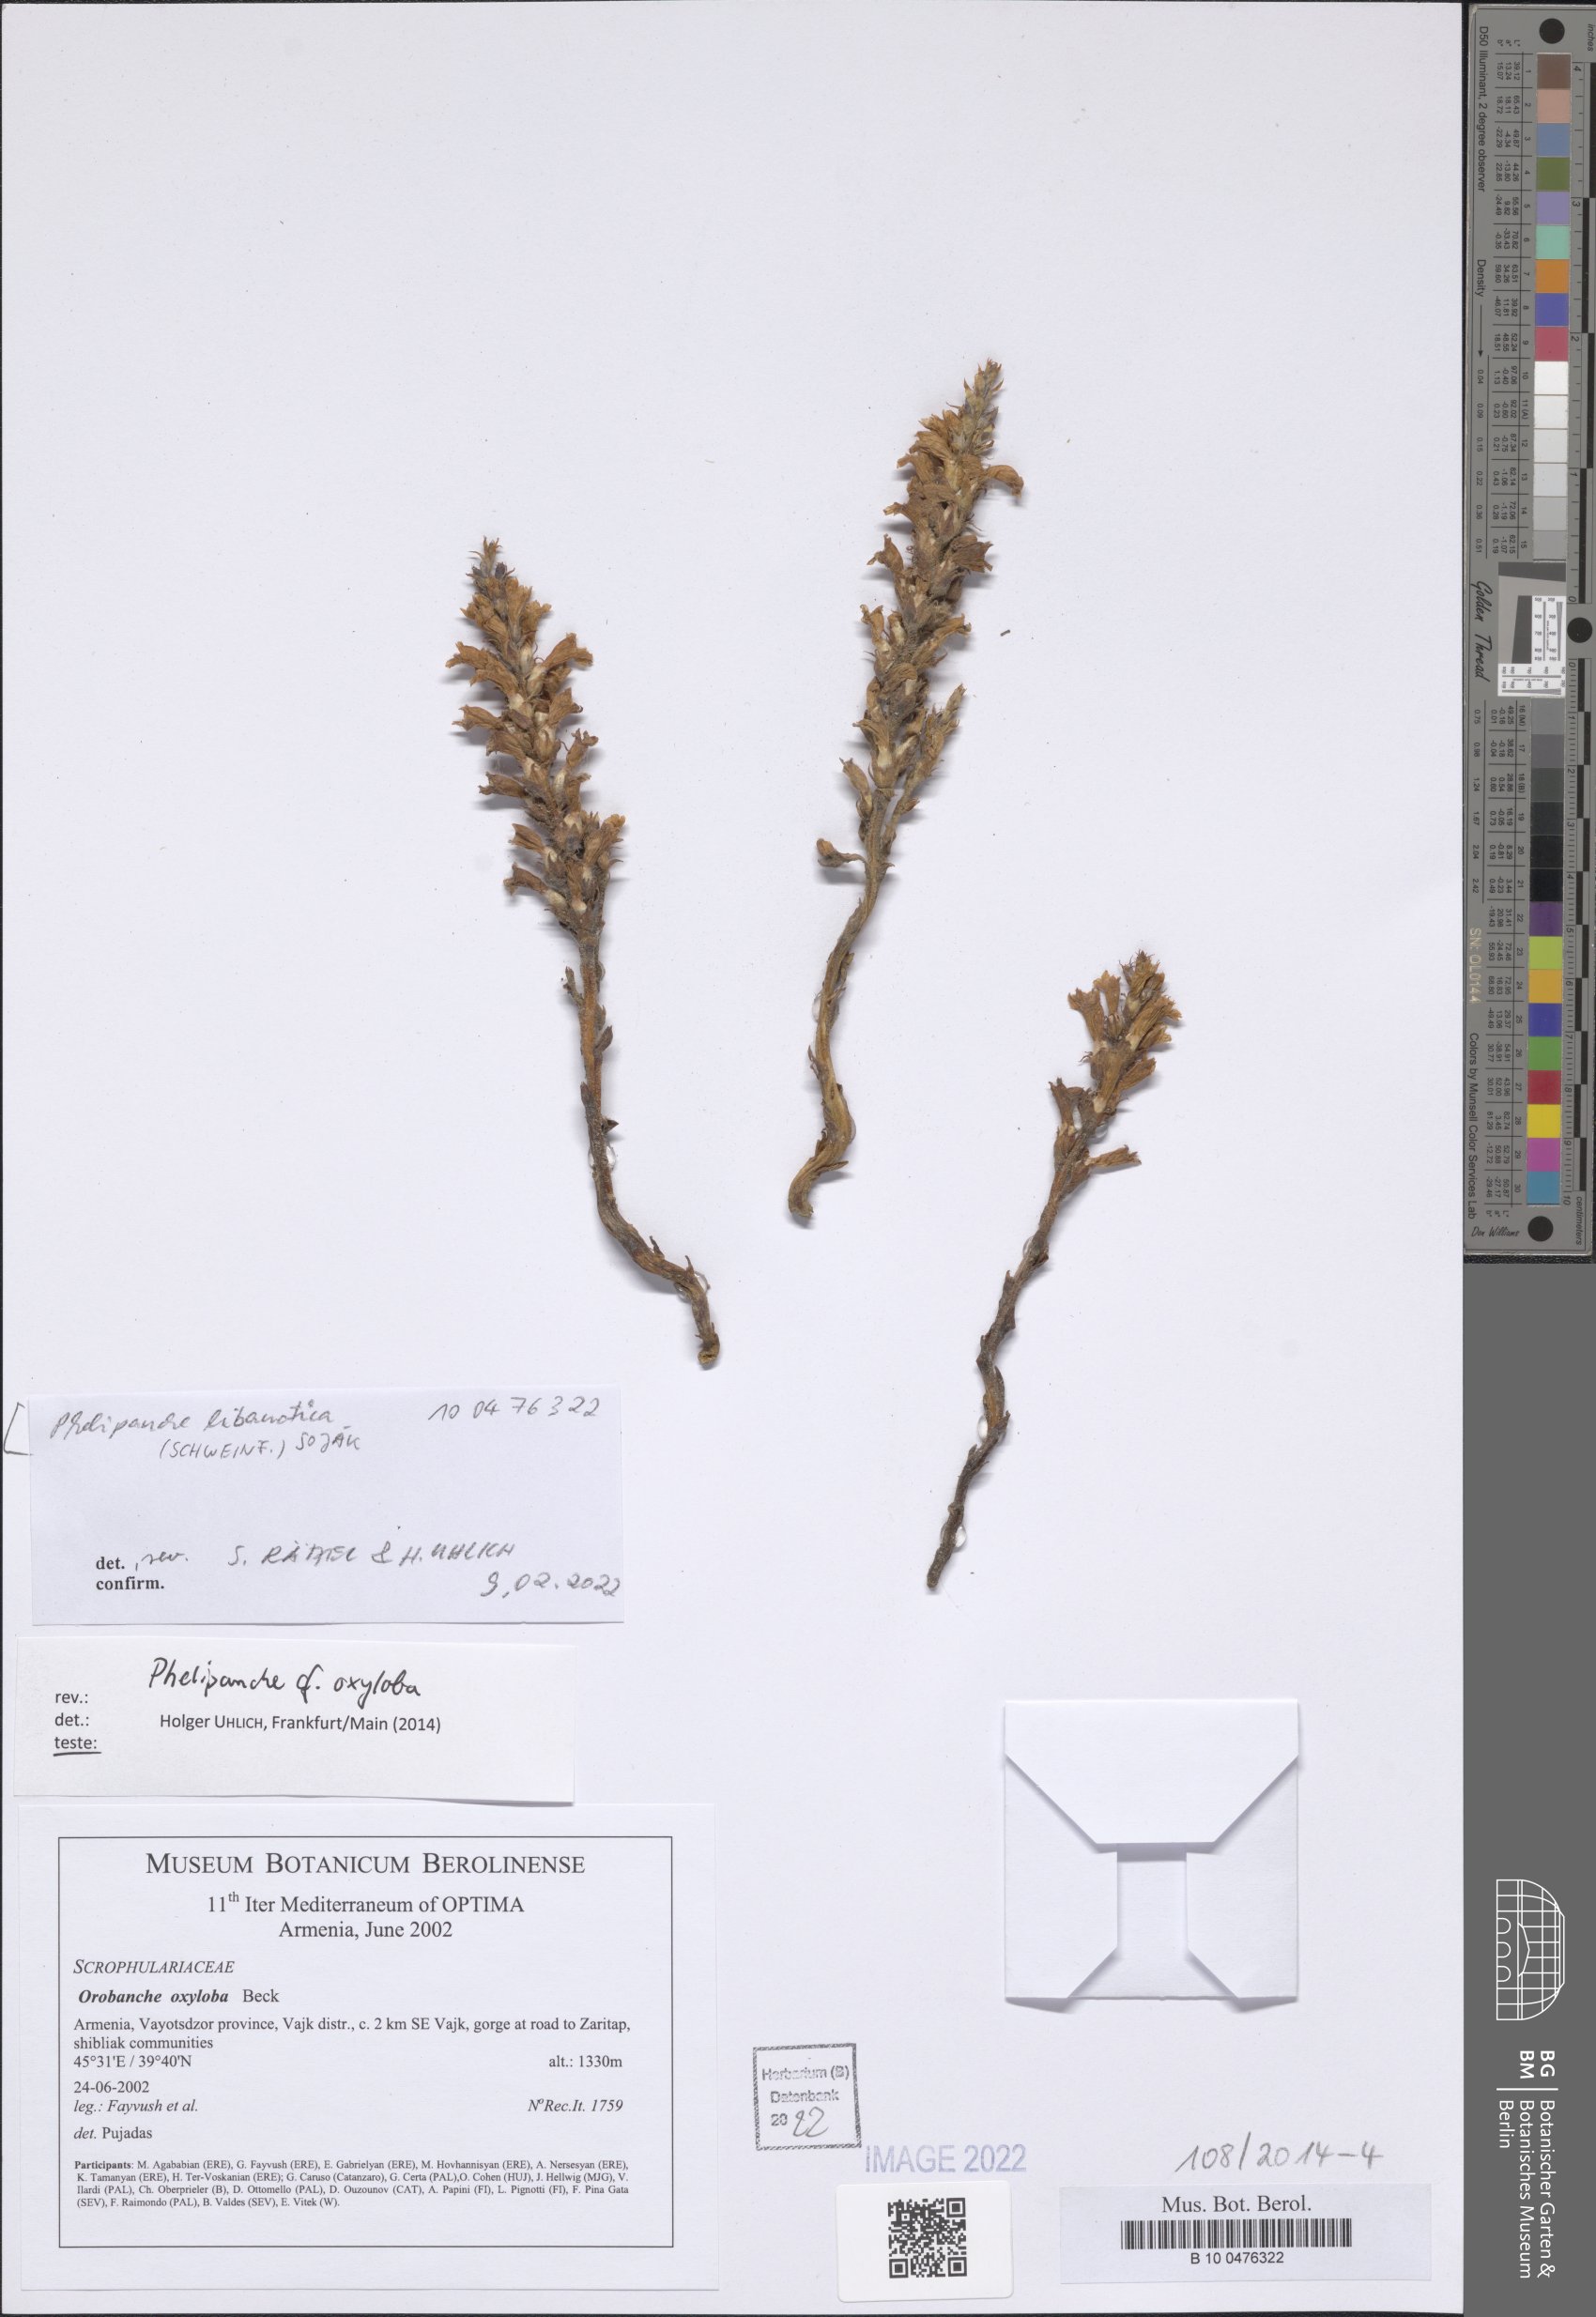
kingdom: Plantae
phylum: Tracheophyta
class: Magnoliopsida
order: Lamiales
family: Orobanchaceae
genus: Phelipanche
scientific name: Phelipanche libanotica
